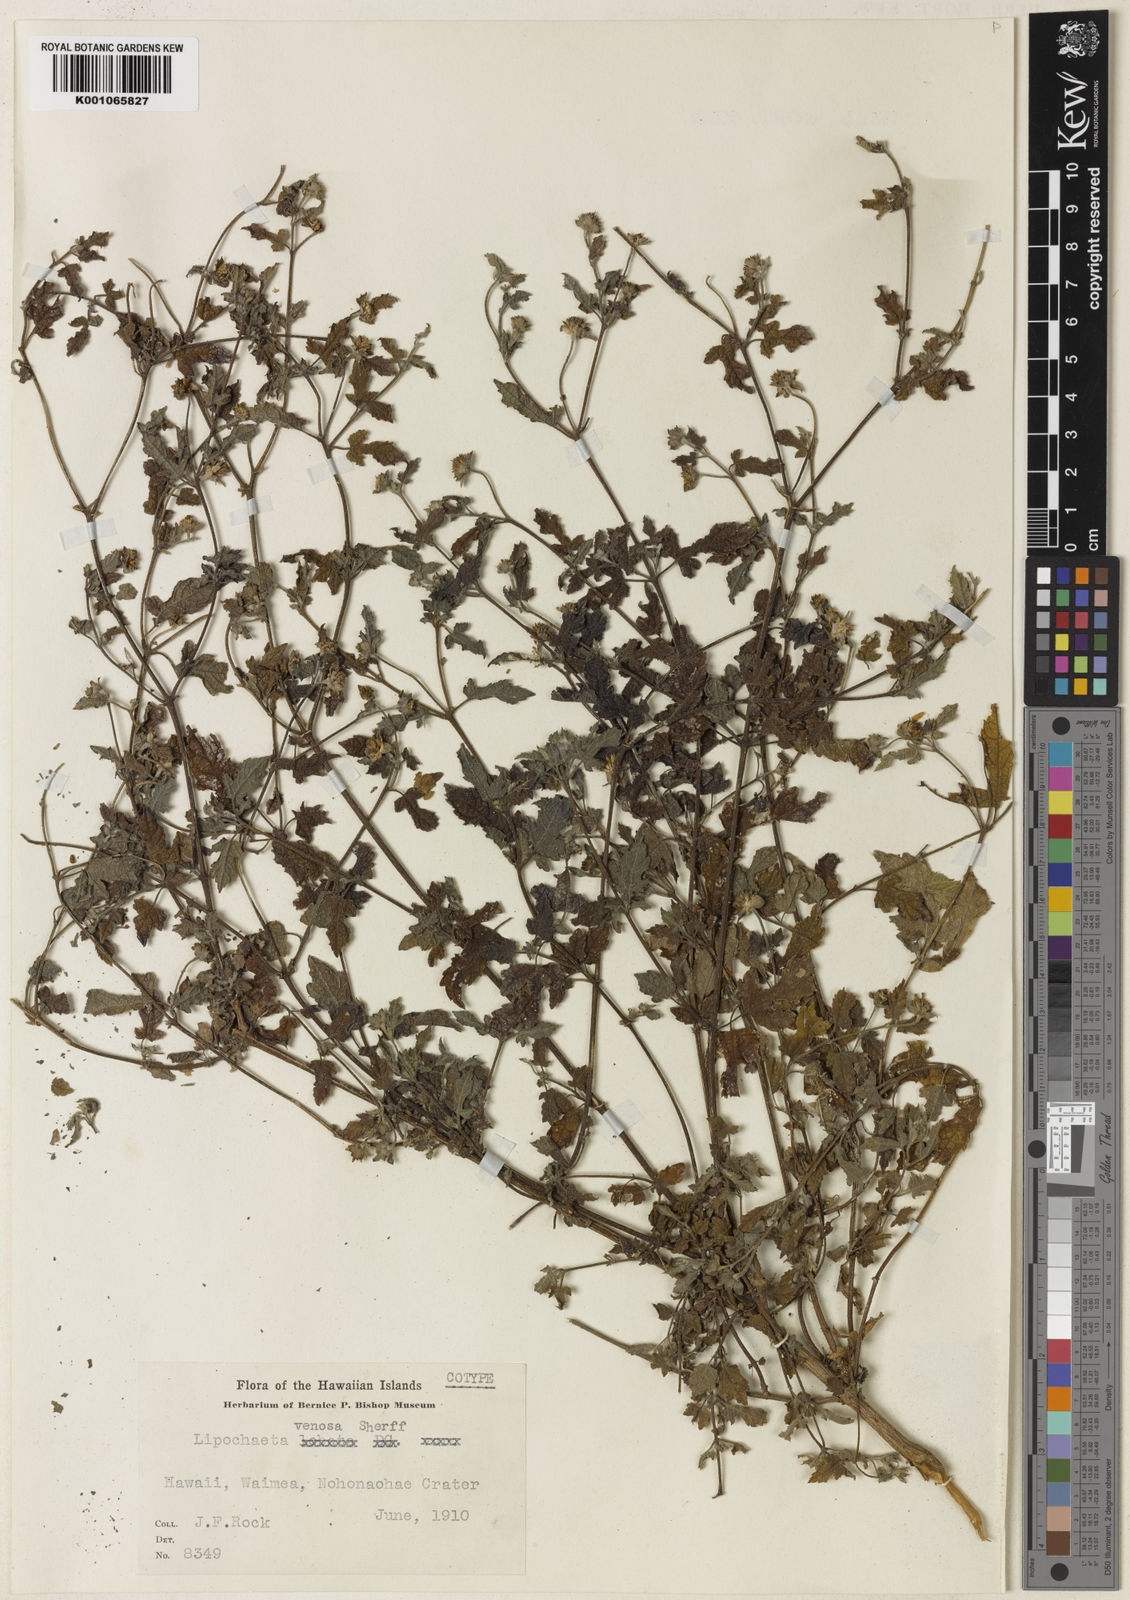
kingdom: Plantae
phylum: Tracheophyta
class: Magnoliopsida
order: Asterales
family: Asteraceae
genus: Lipochaeta
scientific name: Lipochaeta venosa
